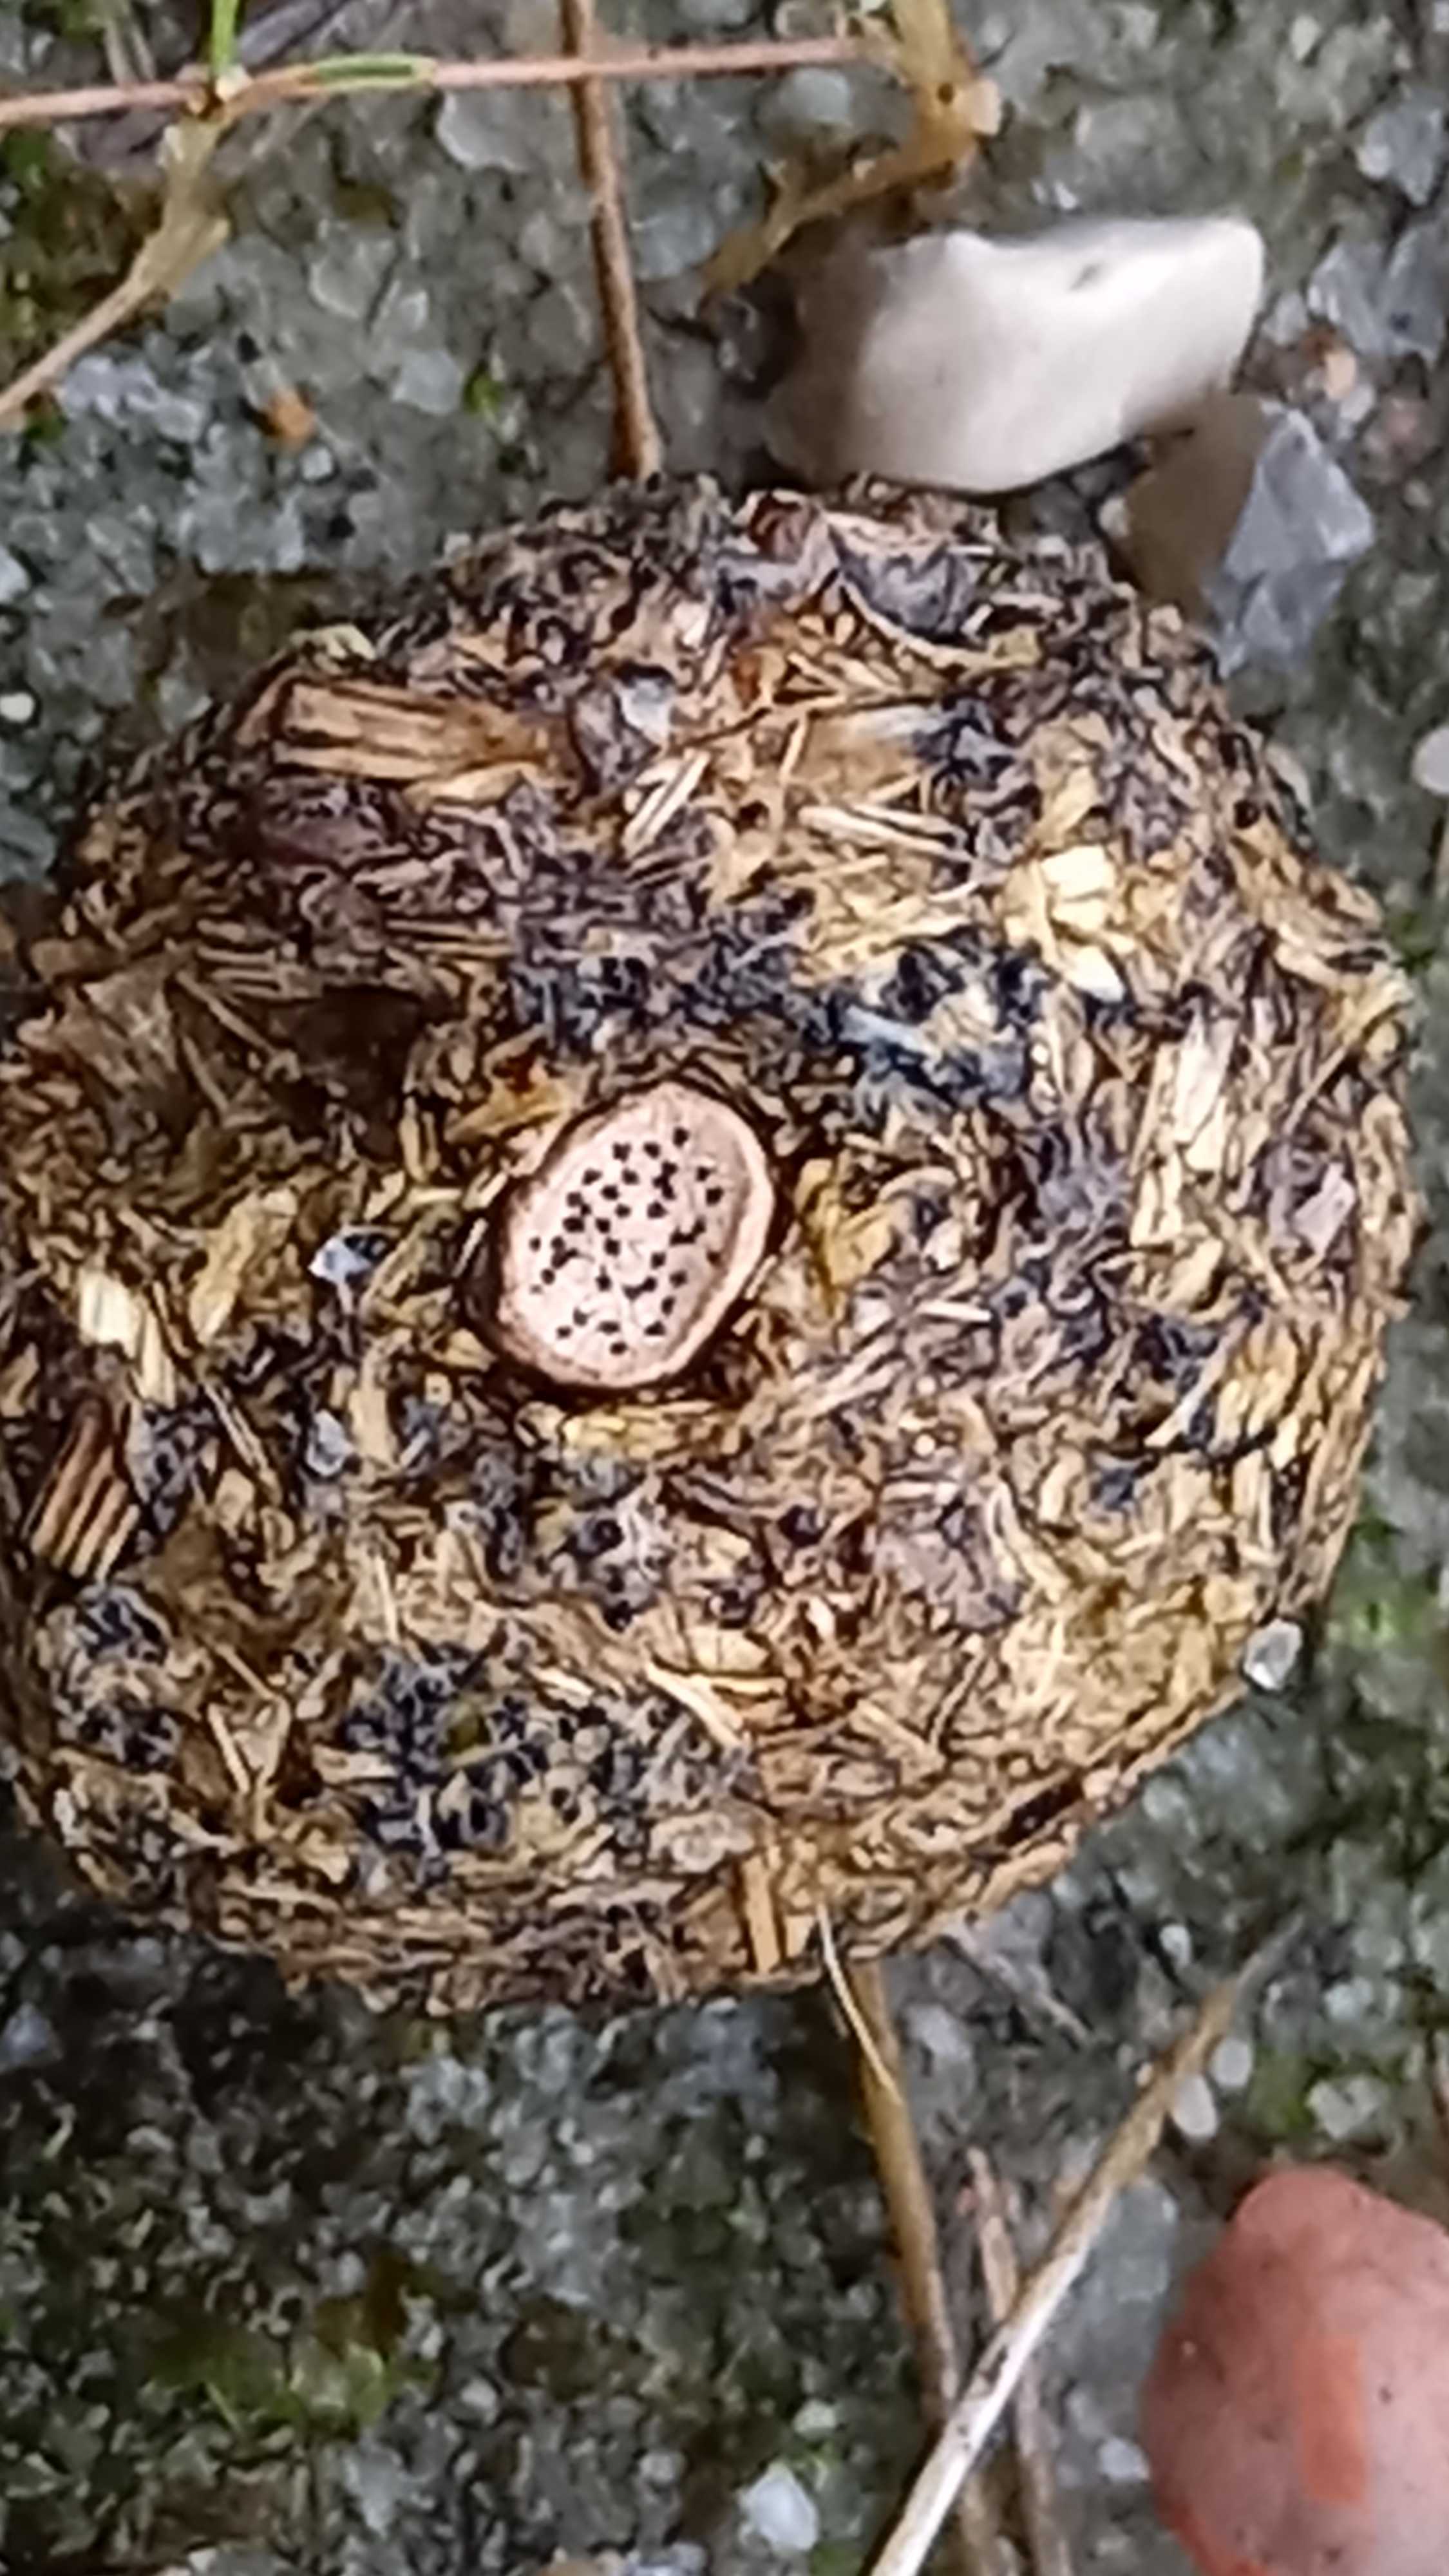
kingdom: Fungi
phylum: Ascomycota
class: Sordariomycetes
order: Xylariales
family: Xylariaceae
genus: Poronia
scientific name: Poronia erici
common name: hare-priksvamp
